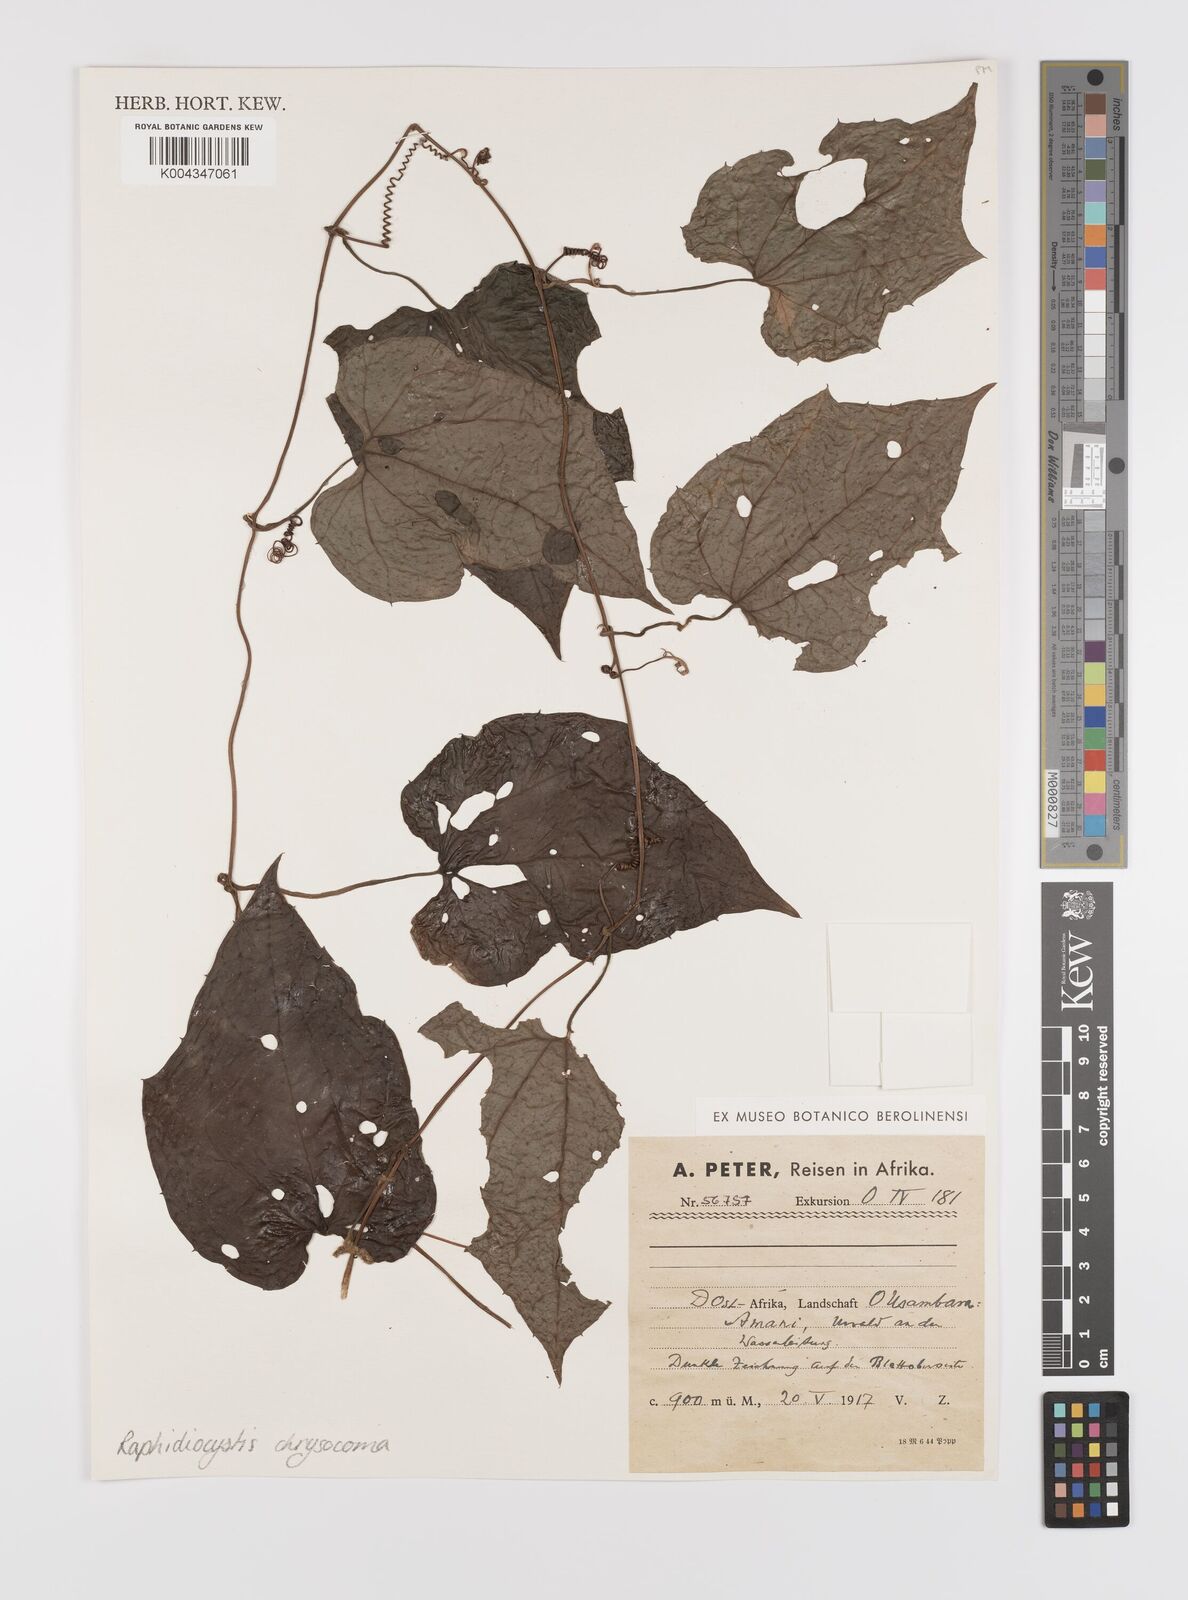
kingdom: Plantae
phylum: Tracheophyta
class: Magnoliopsida
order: Cucurbitales
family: Cucurbitaceae
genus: Raphidiocystis
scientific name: Raphidiocystis chrysocoma
